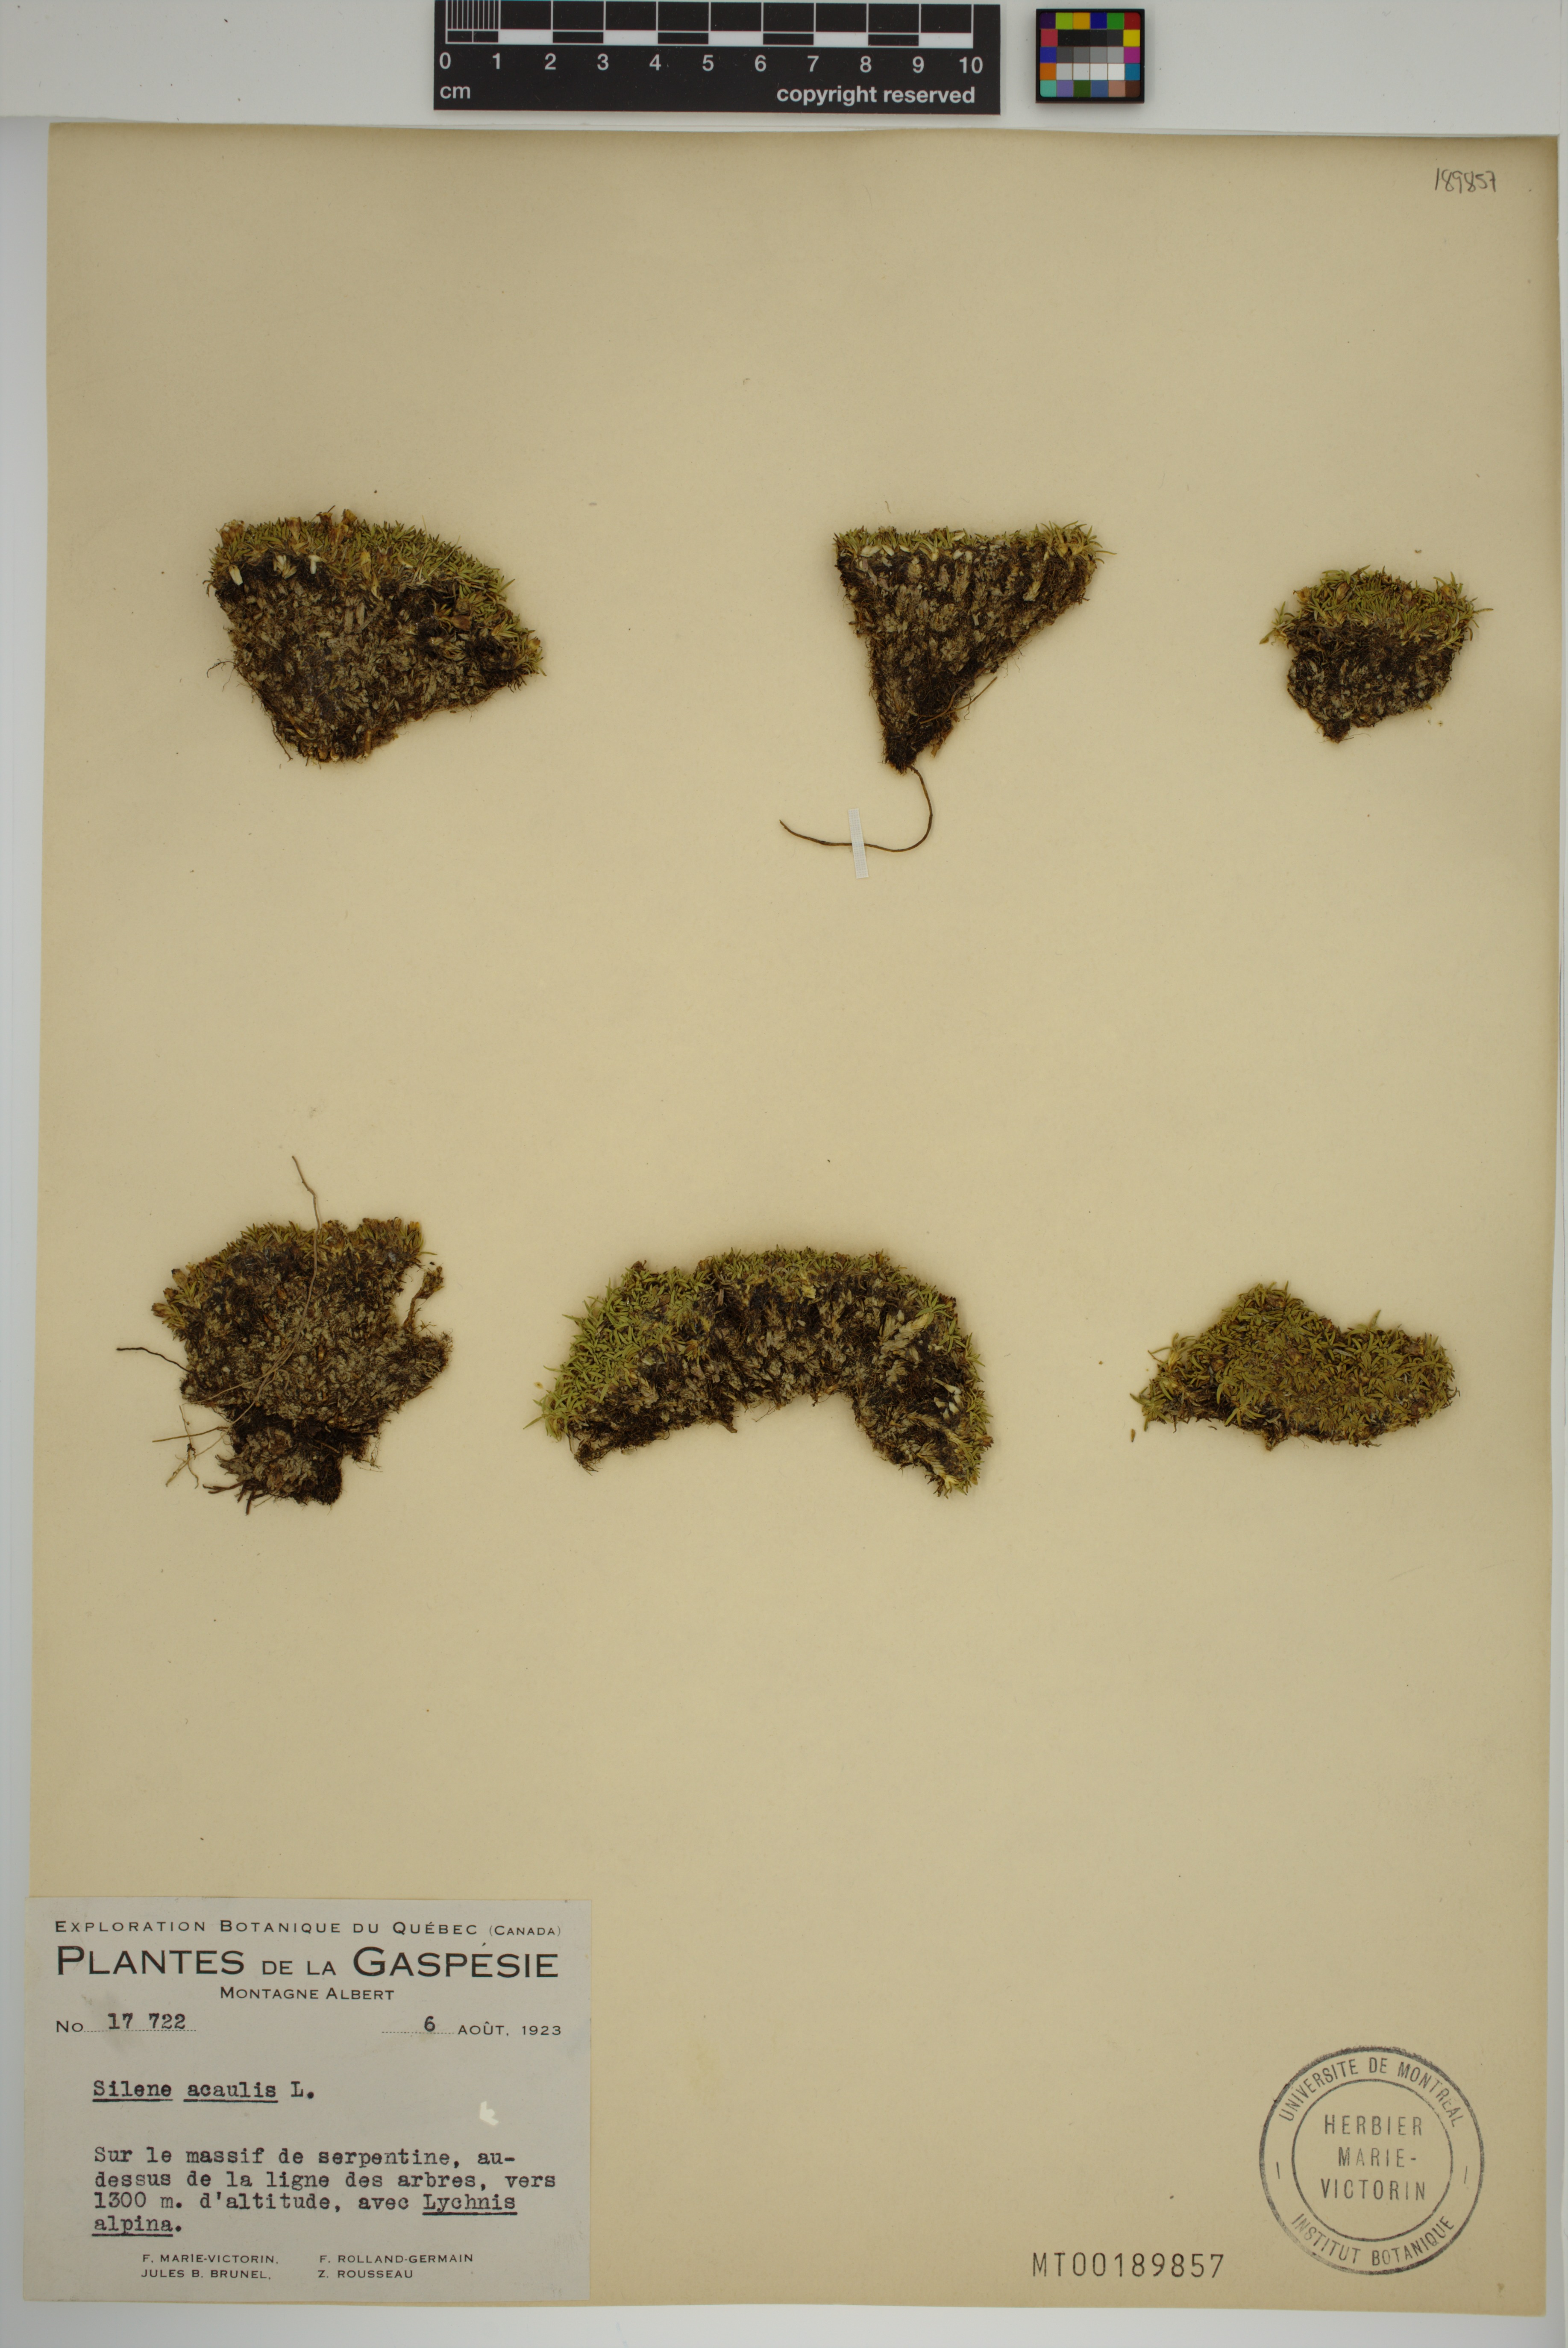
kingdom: Plantae
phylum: Tracheophyta
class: Magnoliopsida
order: Caryophyllales
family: Caryophyllaceae
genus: Silene
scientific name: Silene acaulis
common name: Moss campion
